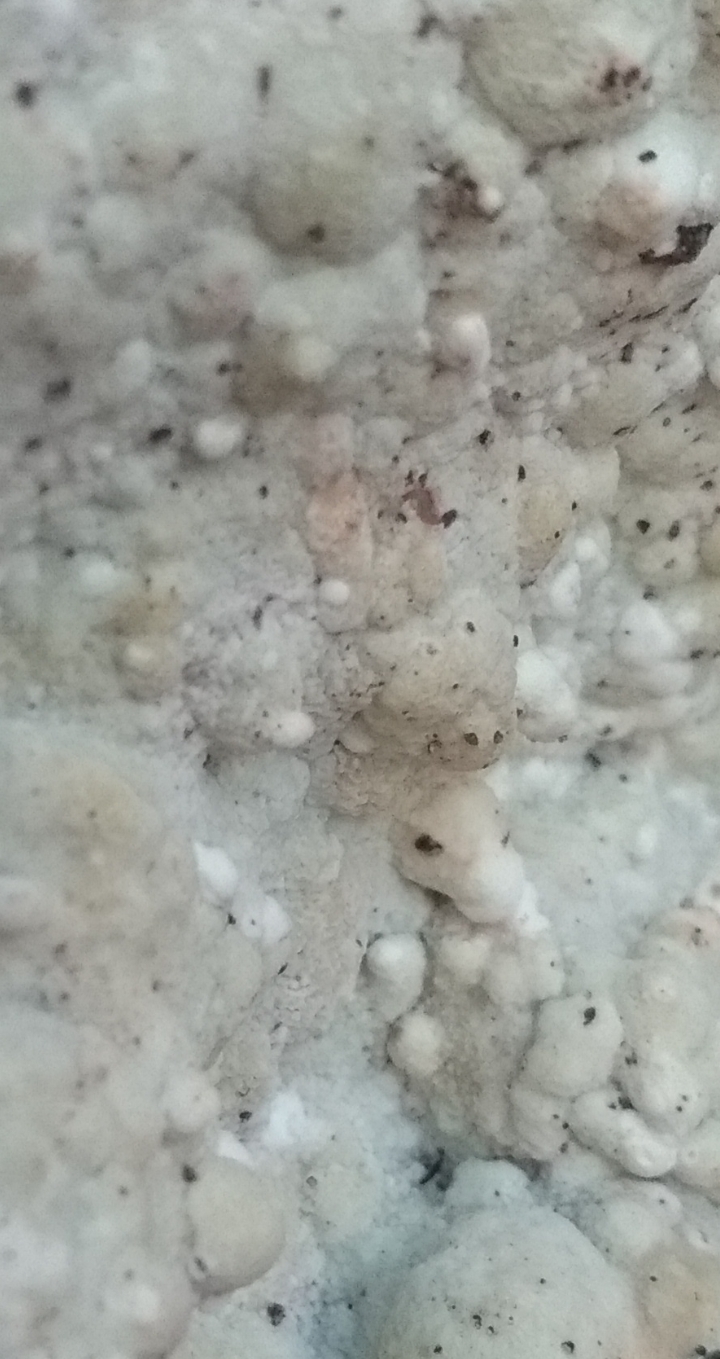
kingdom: Fungi
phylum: Basidiomycota
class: Agaricomycetes
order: Polyporales
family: Irpicaceae
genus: Gloeoporus
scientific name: Gloeoporus pannocinctus
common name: grøngul foldporesvamp
